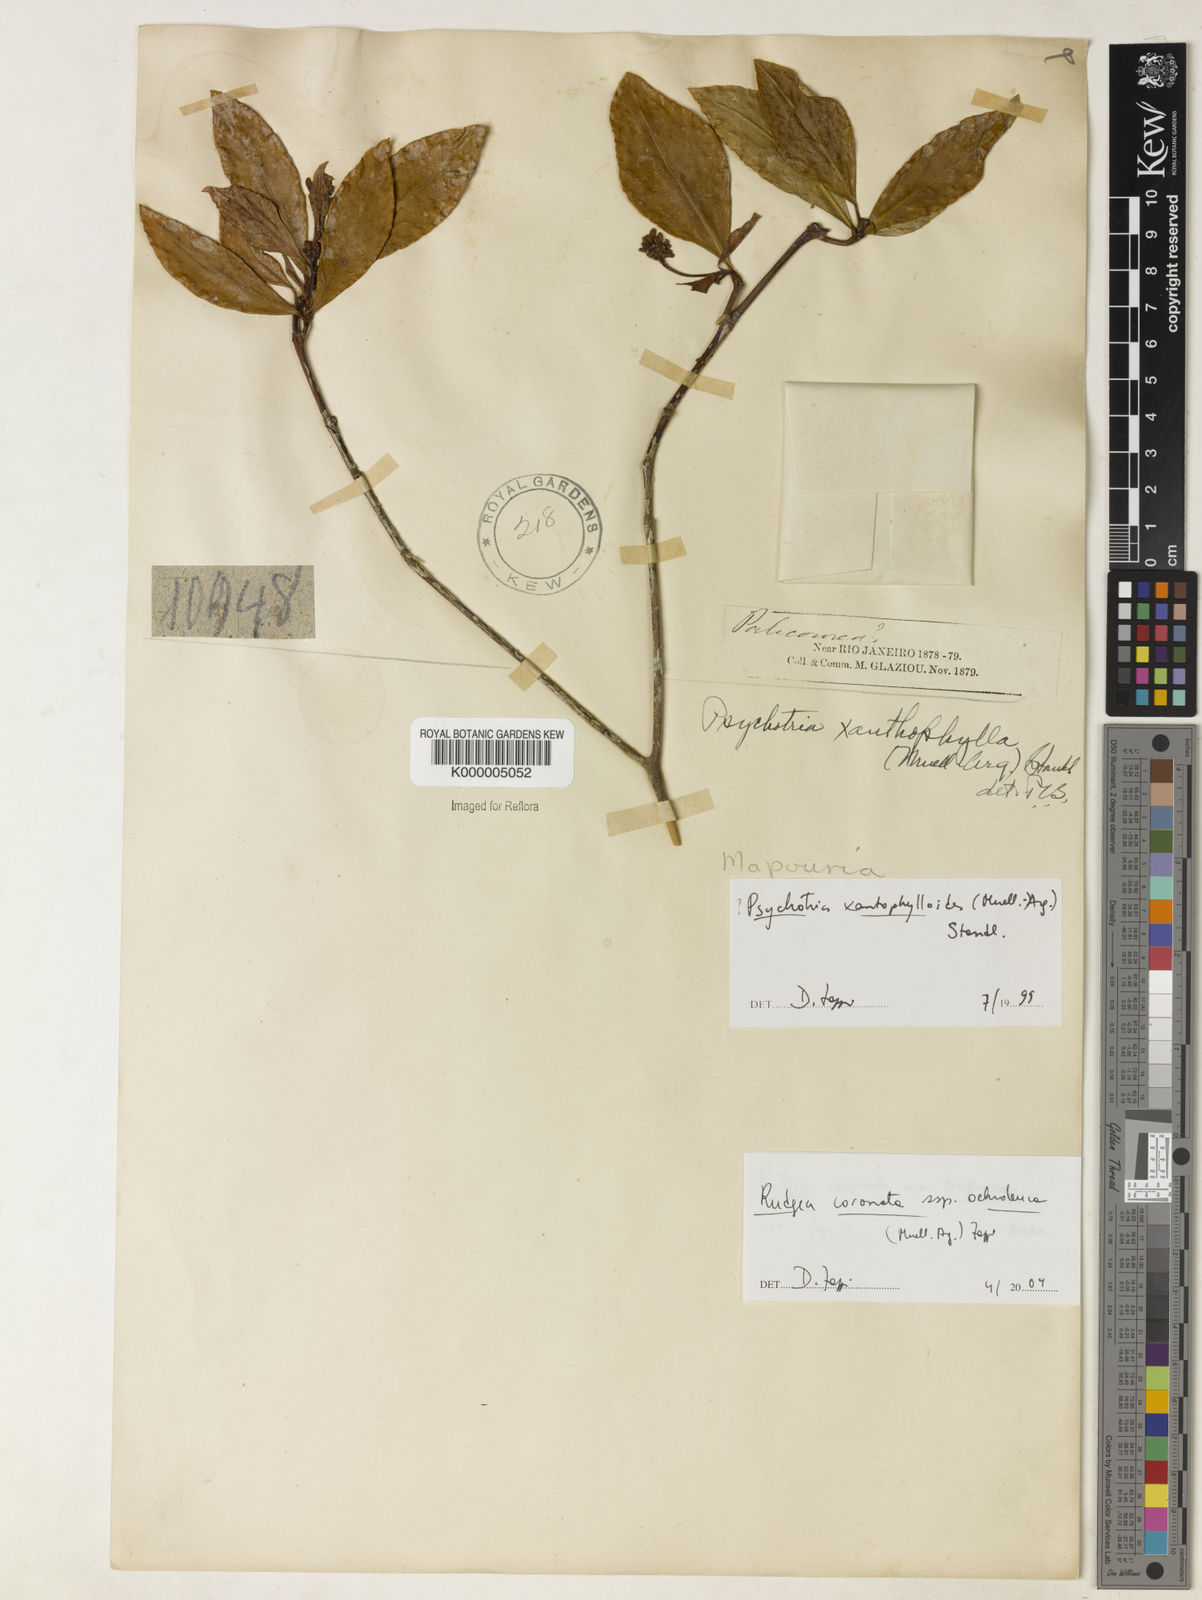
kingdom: Plantae
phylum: Tracheophyta
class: Magnoliopsida
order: Gentianales
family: Rubiaceae
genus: Rudgea
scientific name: Rudgea coronata
